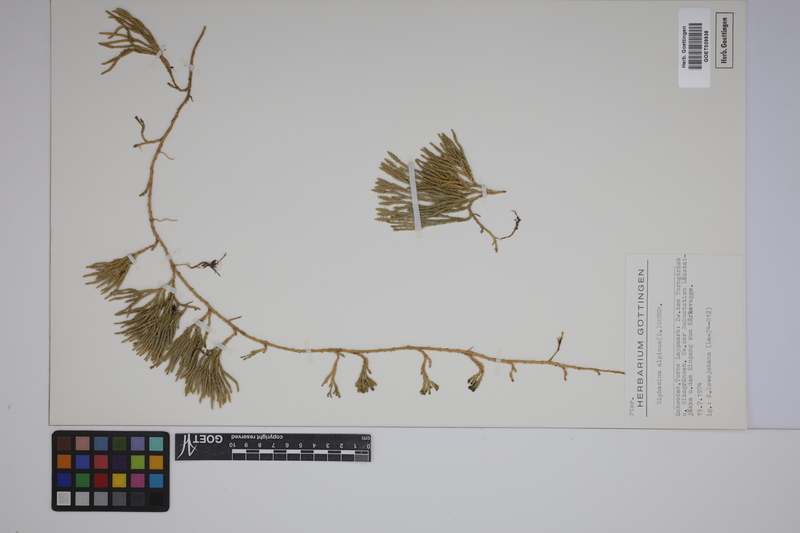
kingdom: Plantae
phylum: Tracheophyta
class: Lycopodiopsida
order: Lycopodiales
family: Lycopodiaceae
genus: Diphasiastrum
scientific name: Diphasiastrum alpinum
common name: Alpine clubmoss
